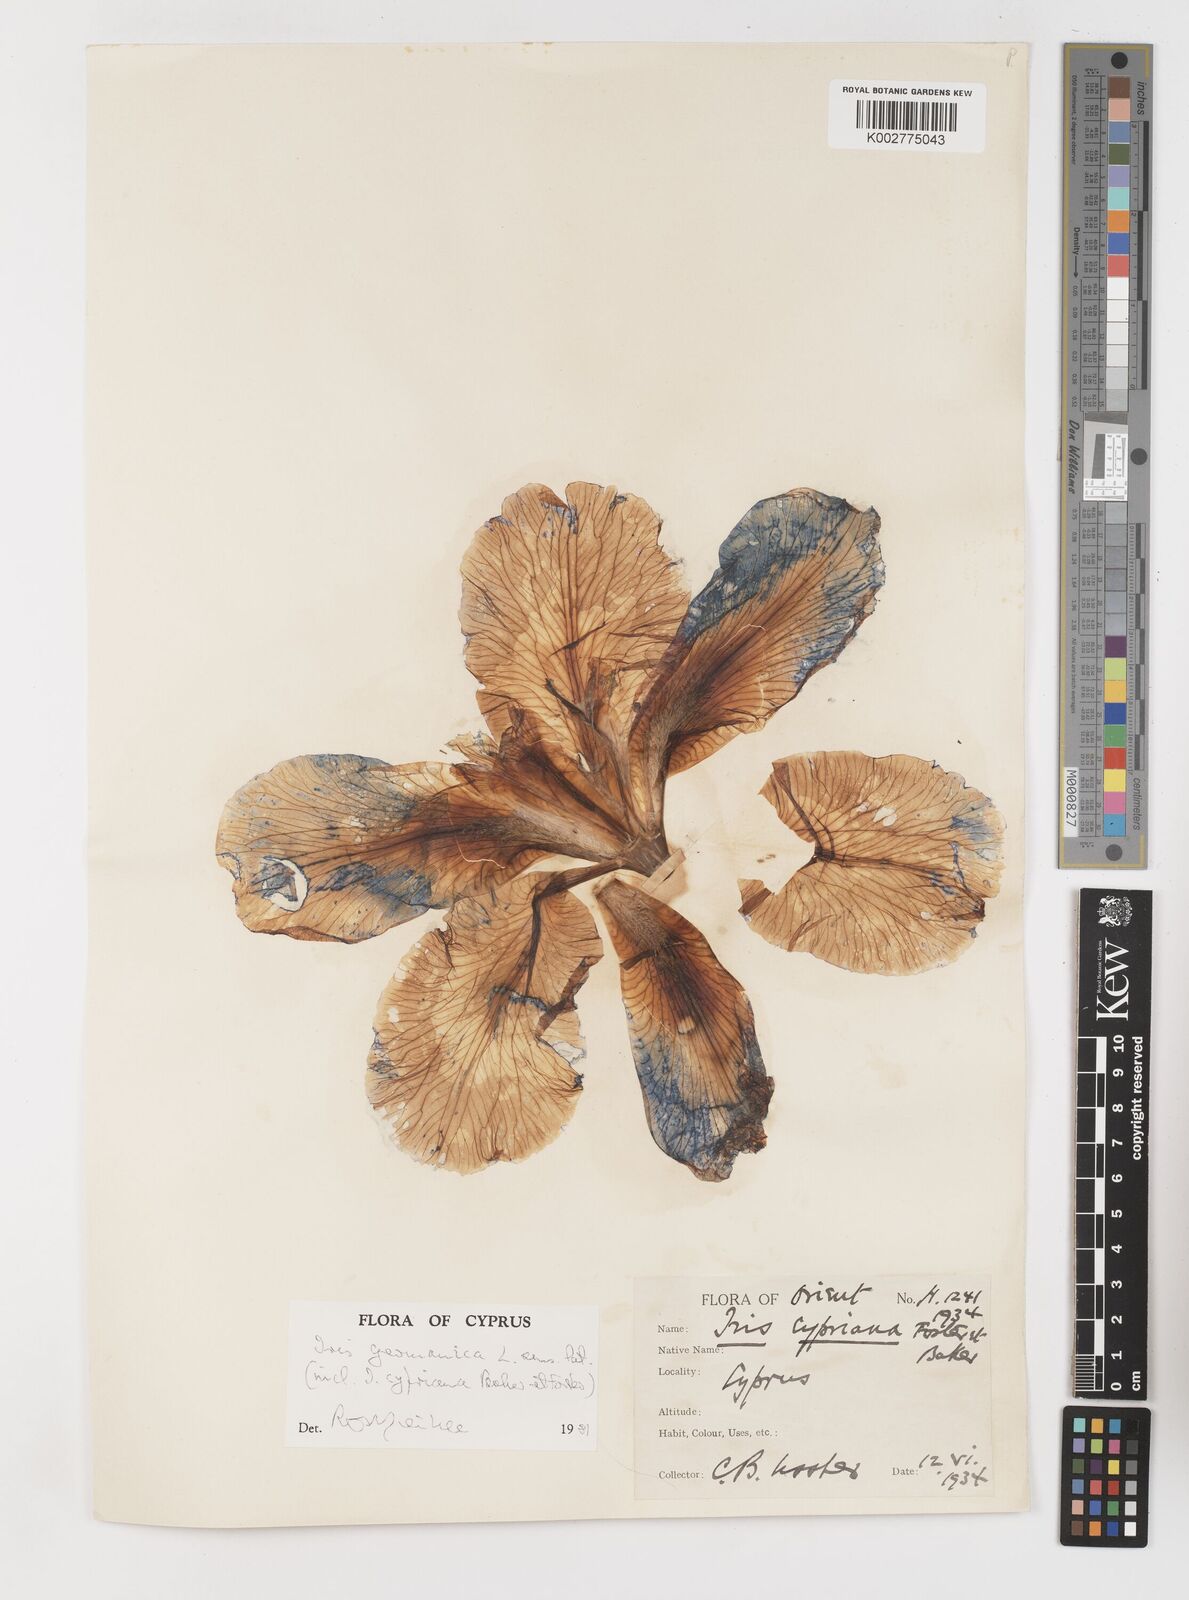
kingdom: Plantae
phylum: Tracheophyta
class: Liliopsida
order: Asparagales
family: Iridaceae
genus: Iris
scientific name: Iris germanica
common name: German iris
